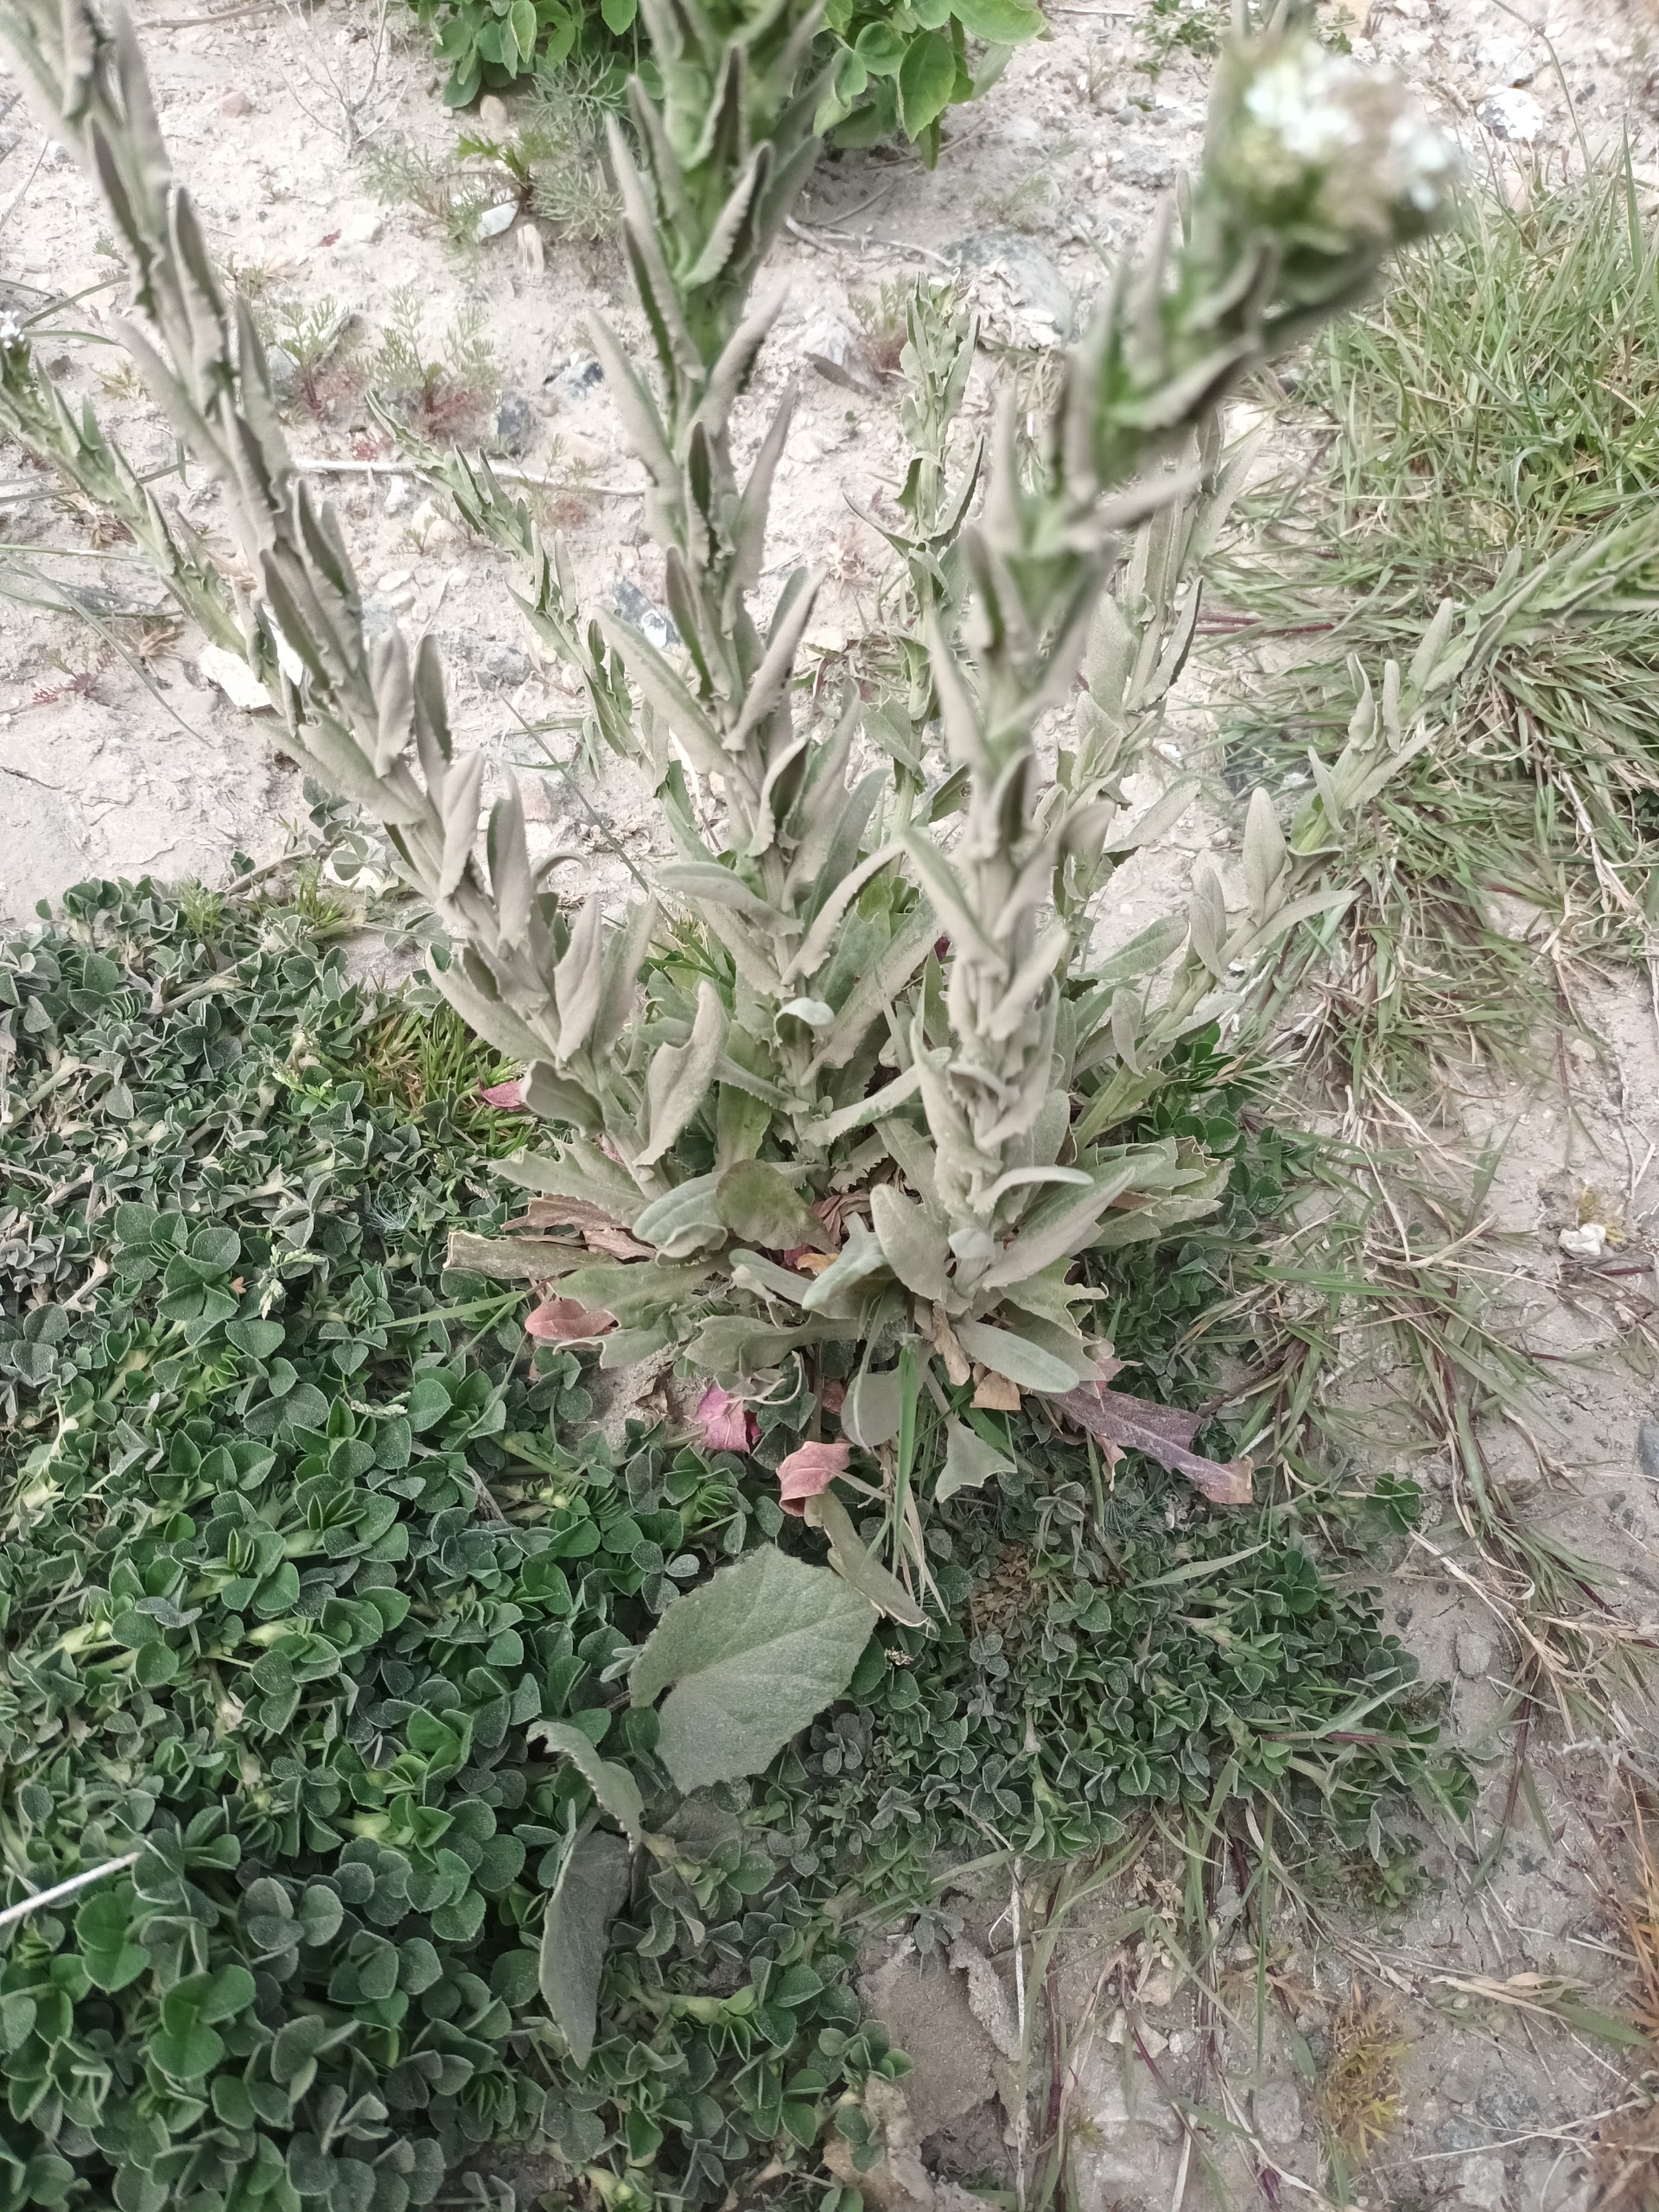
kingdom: Plantae
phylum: Tracheophyta
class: Magnoliopsida
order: Brassicales
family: Brassicaceae
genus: Lepidium
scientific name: Lepidium heterophyllum
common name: Forskelligbladet karse
